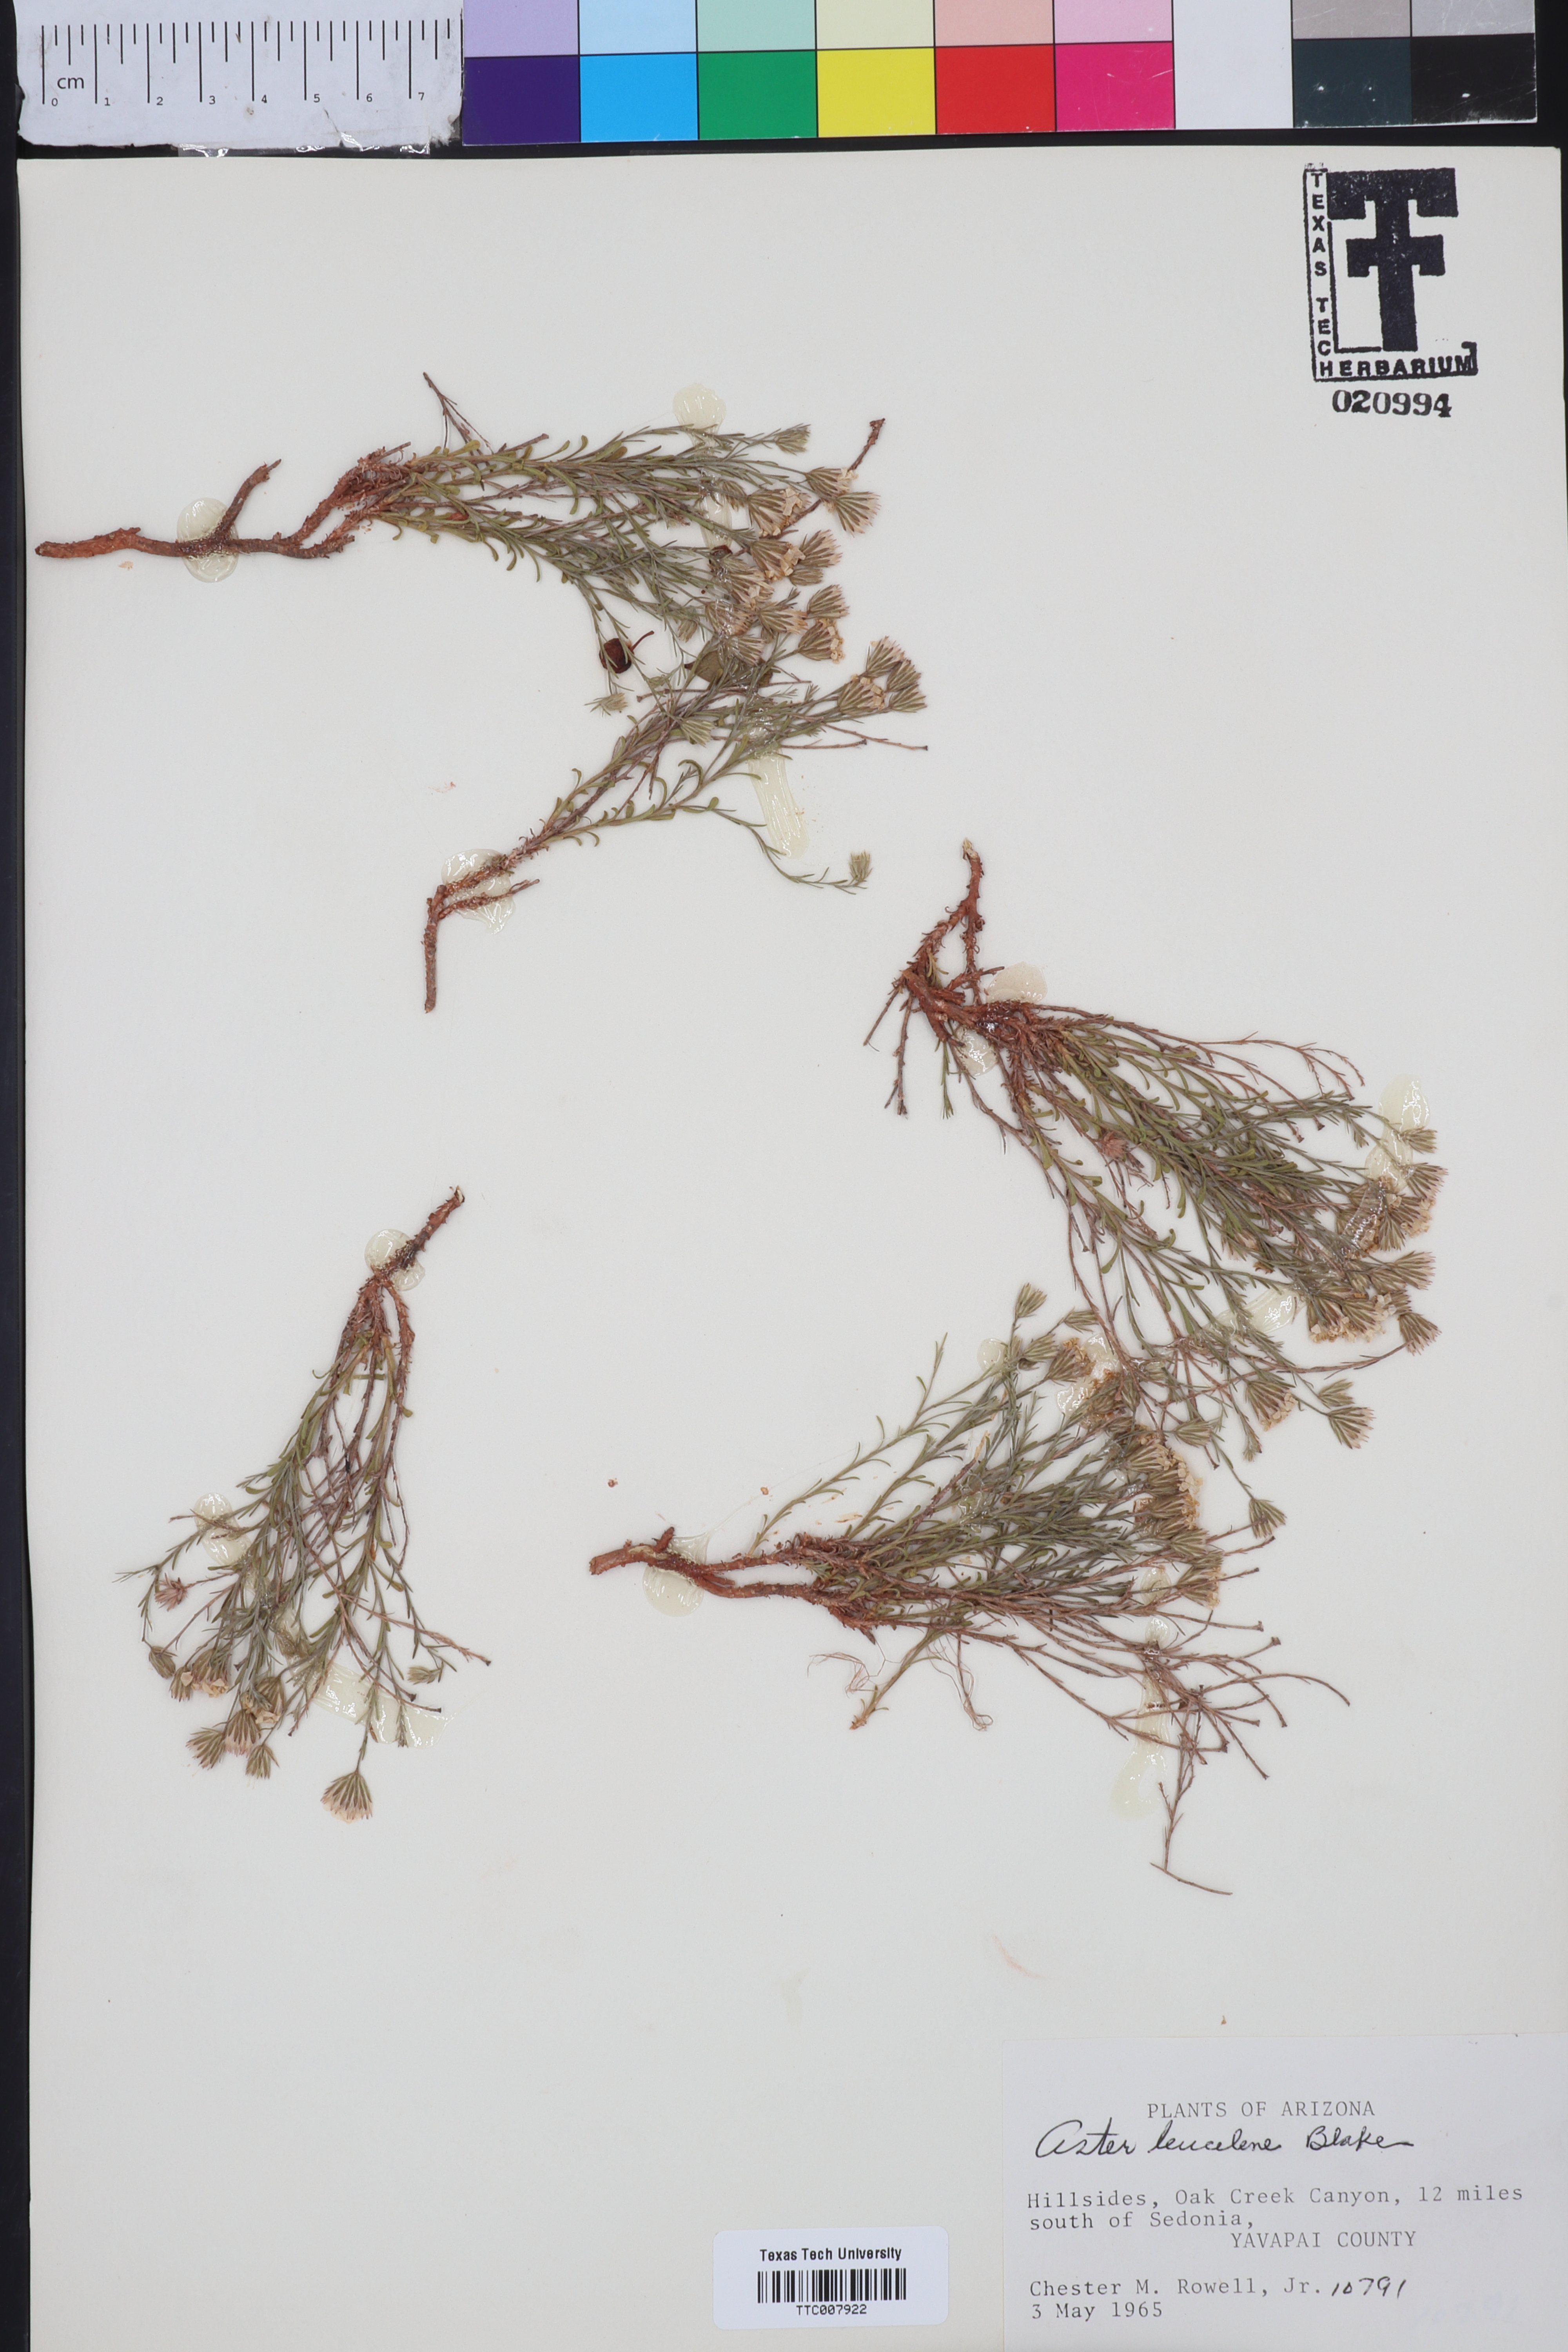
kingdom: Plantae
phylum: Tracheophyta
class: Magnoliopsida
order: Asterales
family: Asteraceae
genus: Chaetopappa
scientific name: Chaetopappa ericoides
